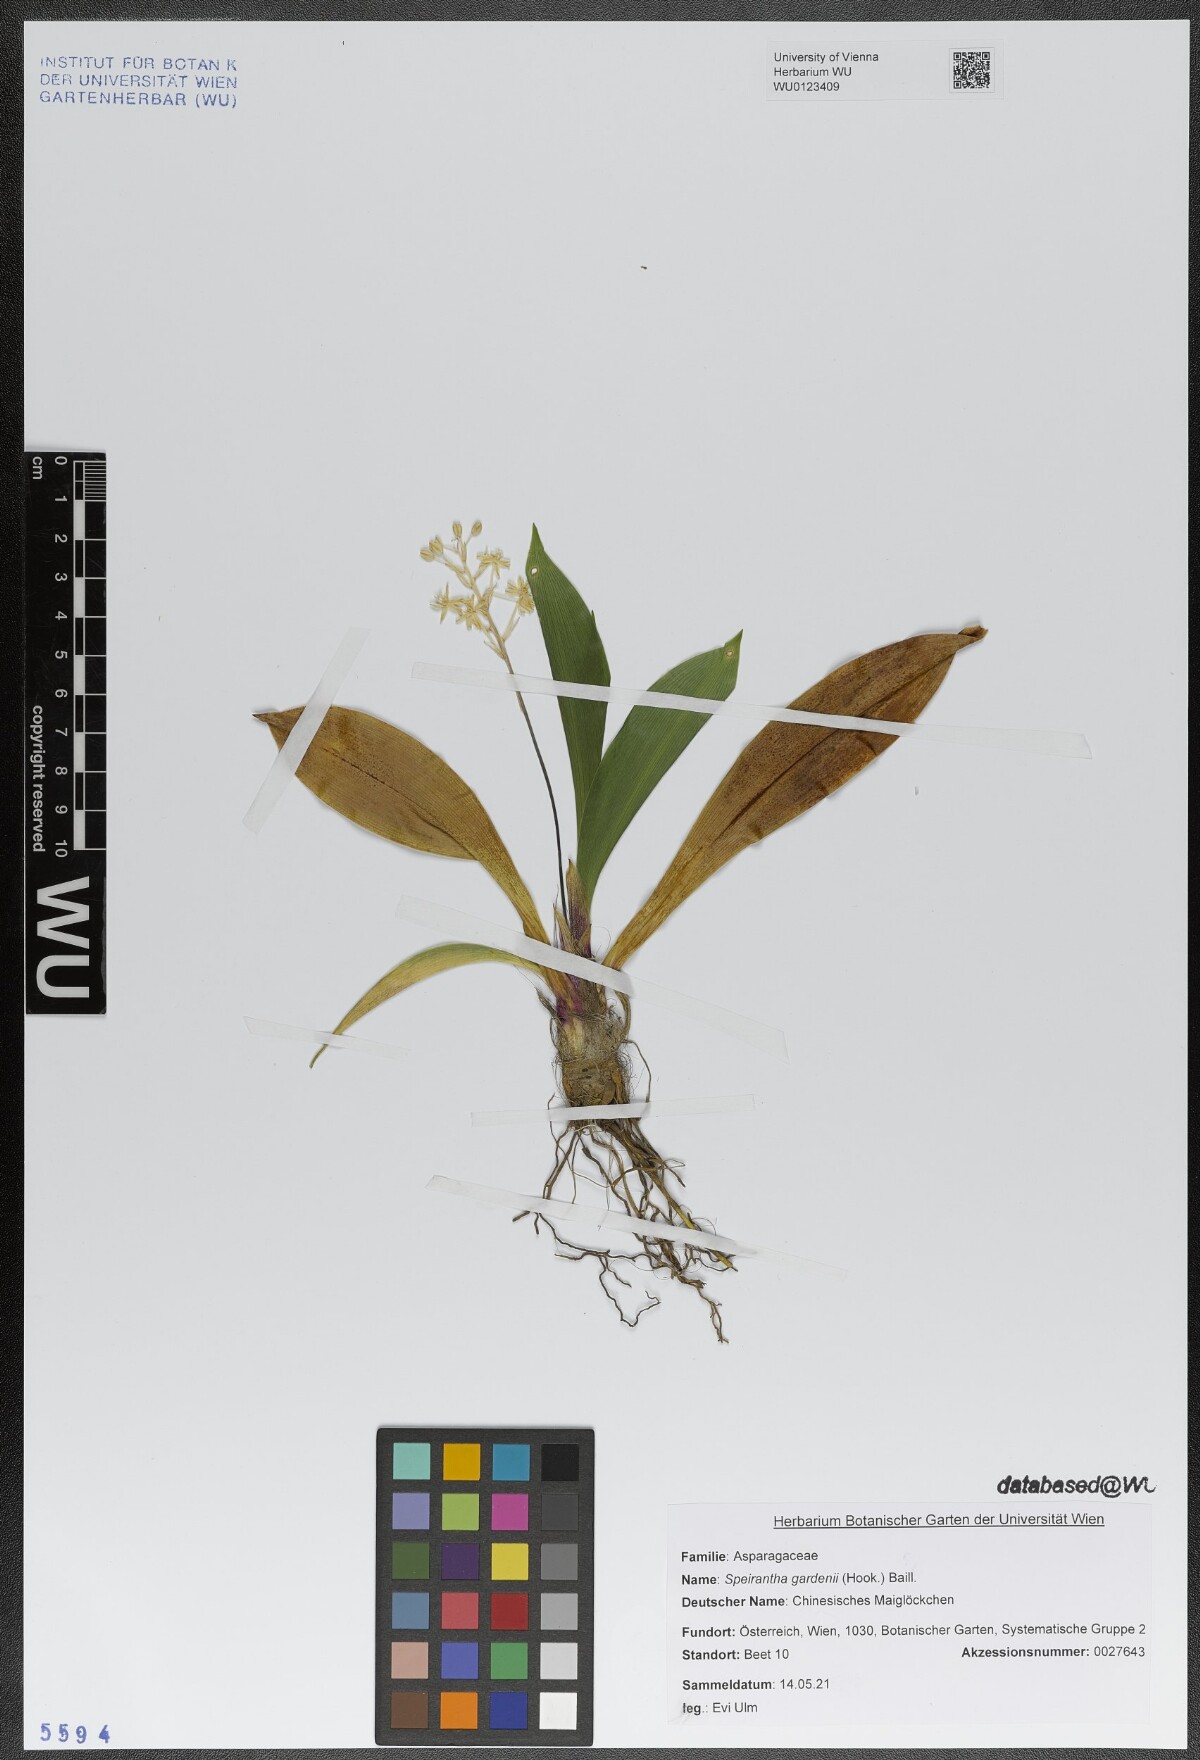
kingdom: Plantae
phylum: Tracheophyta
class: Liliopsida
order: Asparagales
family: Asparagaceae
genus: Speirantha
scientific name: Speirantha gardenii
